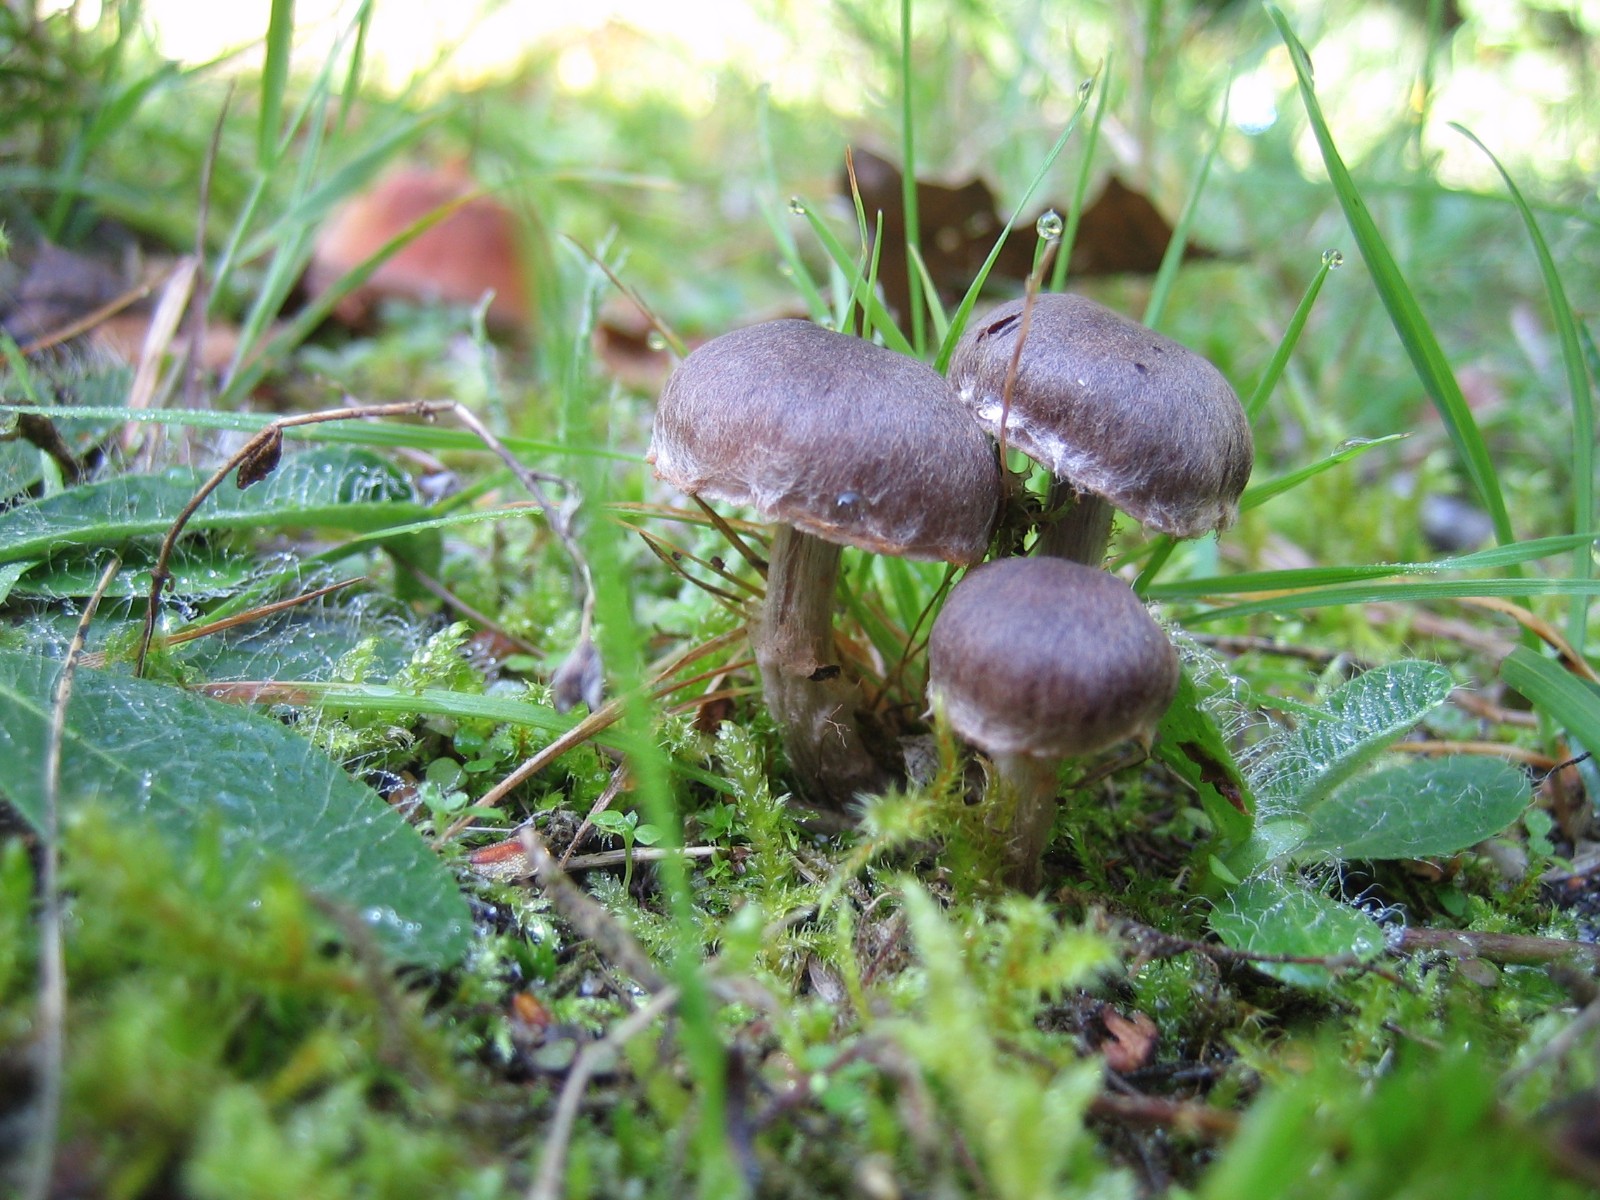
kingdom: Fungi
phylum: Basidiomycota
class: Agaricomycetes
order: Agaricales
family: Cortinariaceae
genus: Cortinarius
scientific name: Cortinarius
